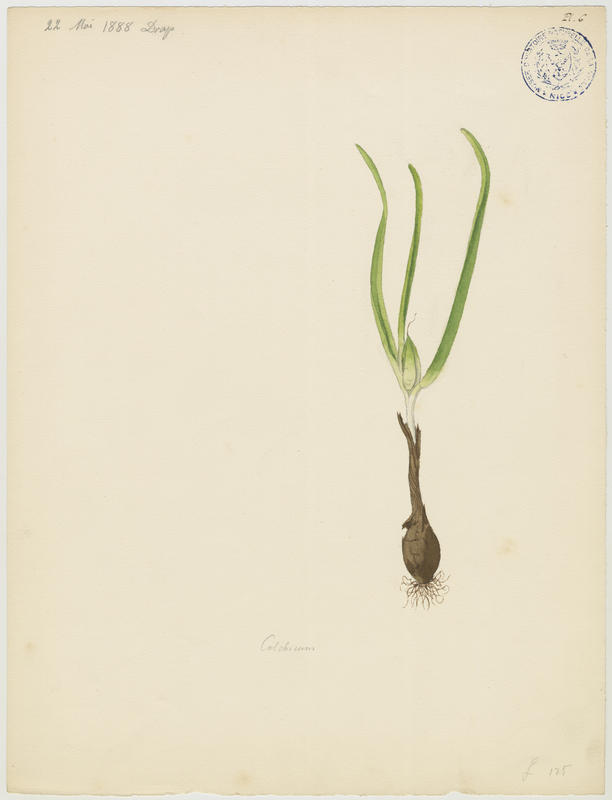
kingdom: Plantae
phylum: Tracheophyta
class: Liliopsida
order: Liliales
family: Colchicaceae
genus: Colchicum
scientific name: Colchicum autumnale
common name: Autumn crocus
